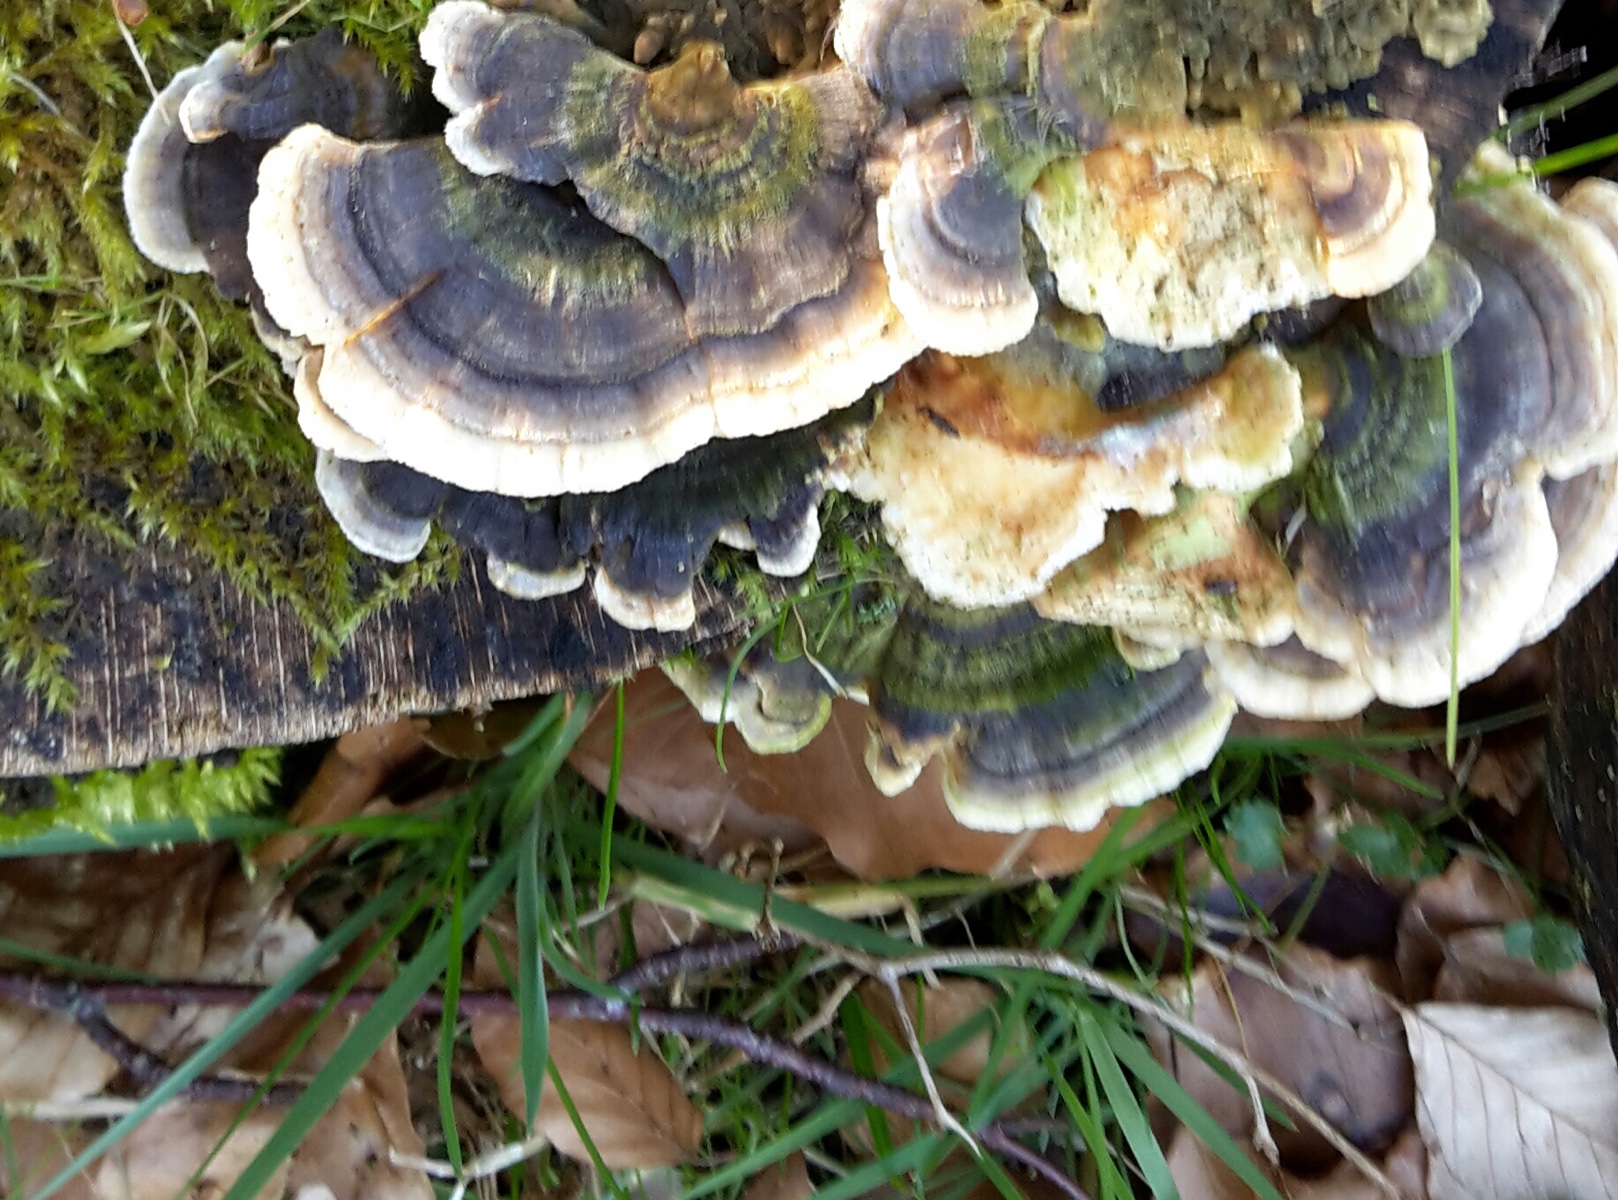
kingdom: Fungi
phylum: Basidiomycota
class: Agaricomycetes
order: Polyporales
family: Polyporaceae
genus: Trametes
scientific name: Trametes versicolor
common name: broget læderporesvamp
